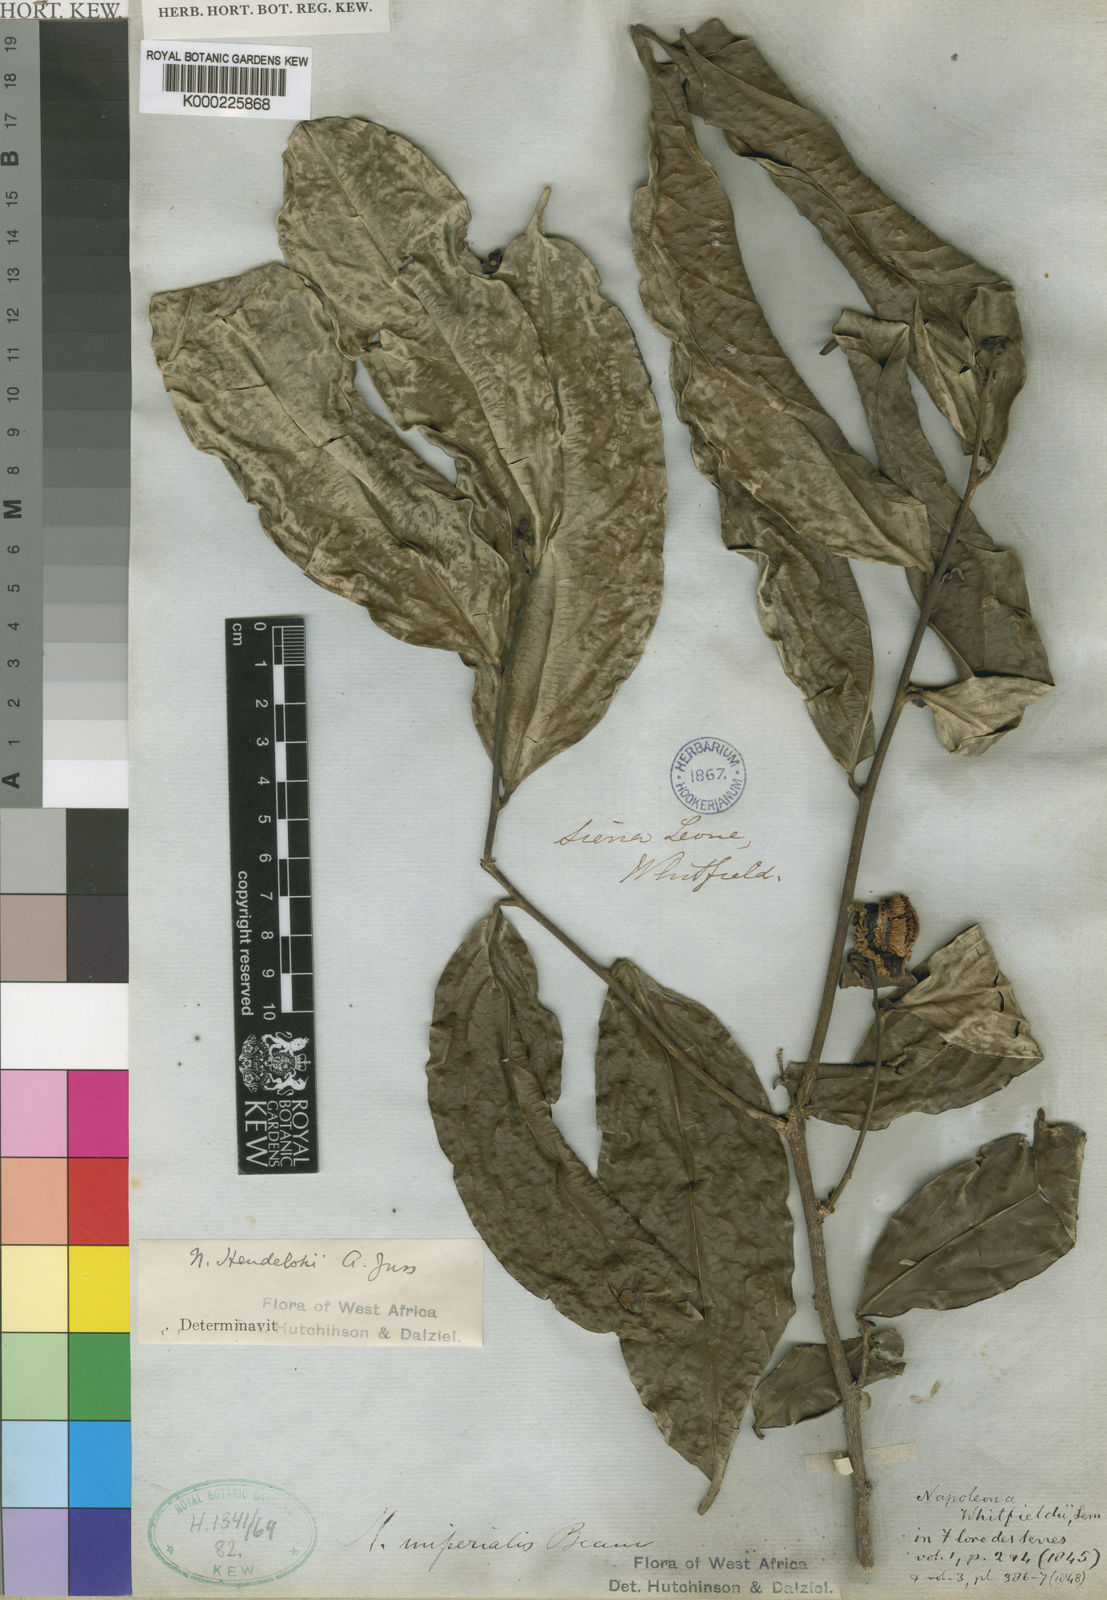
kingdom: Plantae
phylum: Tracheophyta
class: Magnoliopsida
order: Ericales
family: Lecythidaceae
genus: Napoleonaea
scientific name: Napoleonaea heudelotii
